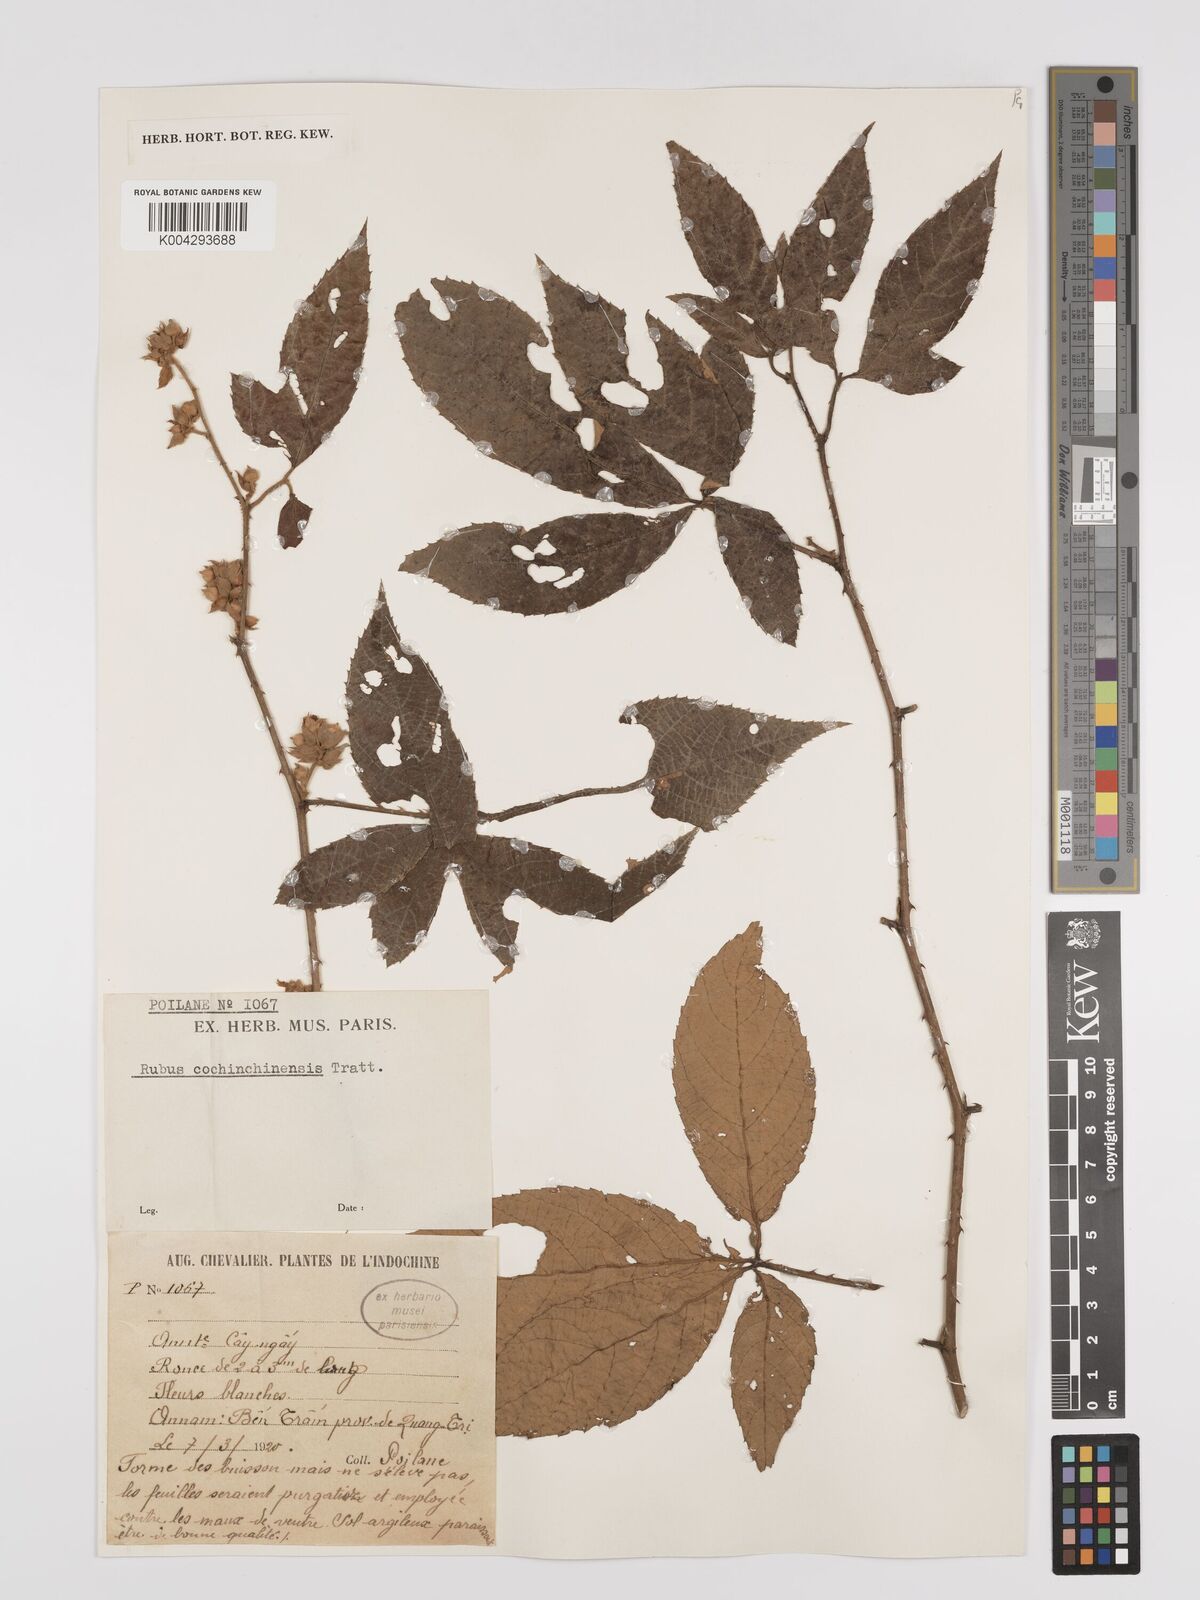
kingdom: Plantae
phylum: Tracheophyta
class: Magnoliopsida
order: Rosales
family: Rosaceae
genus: Rubus
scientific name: Rubus cochinchinensis
